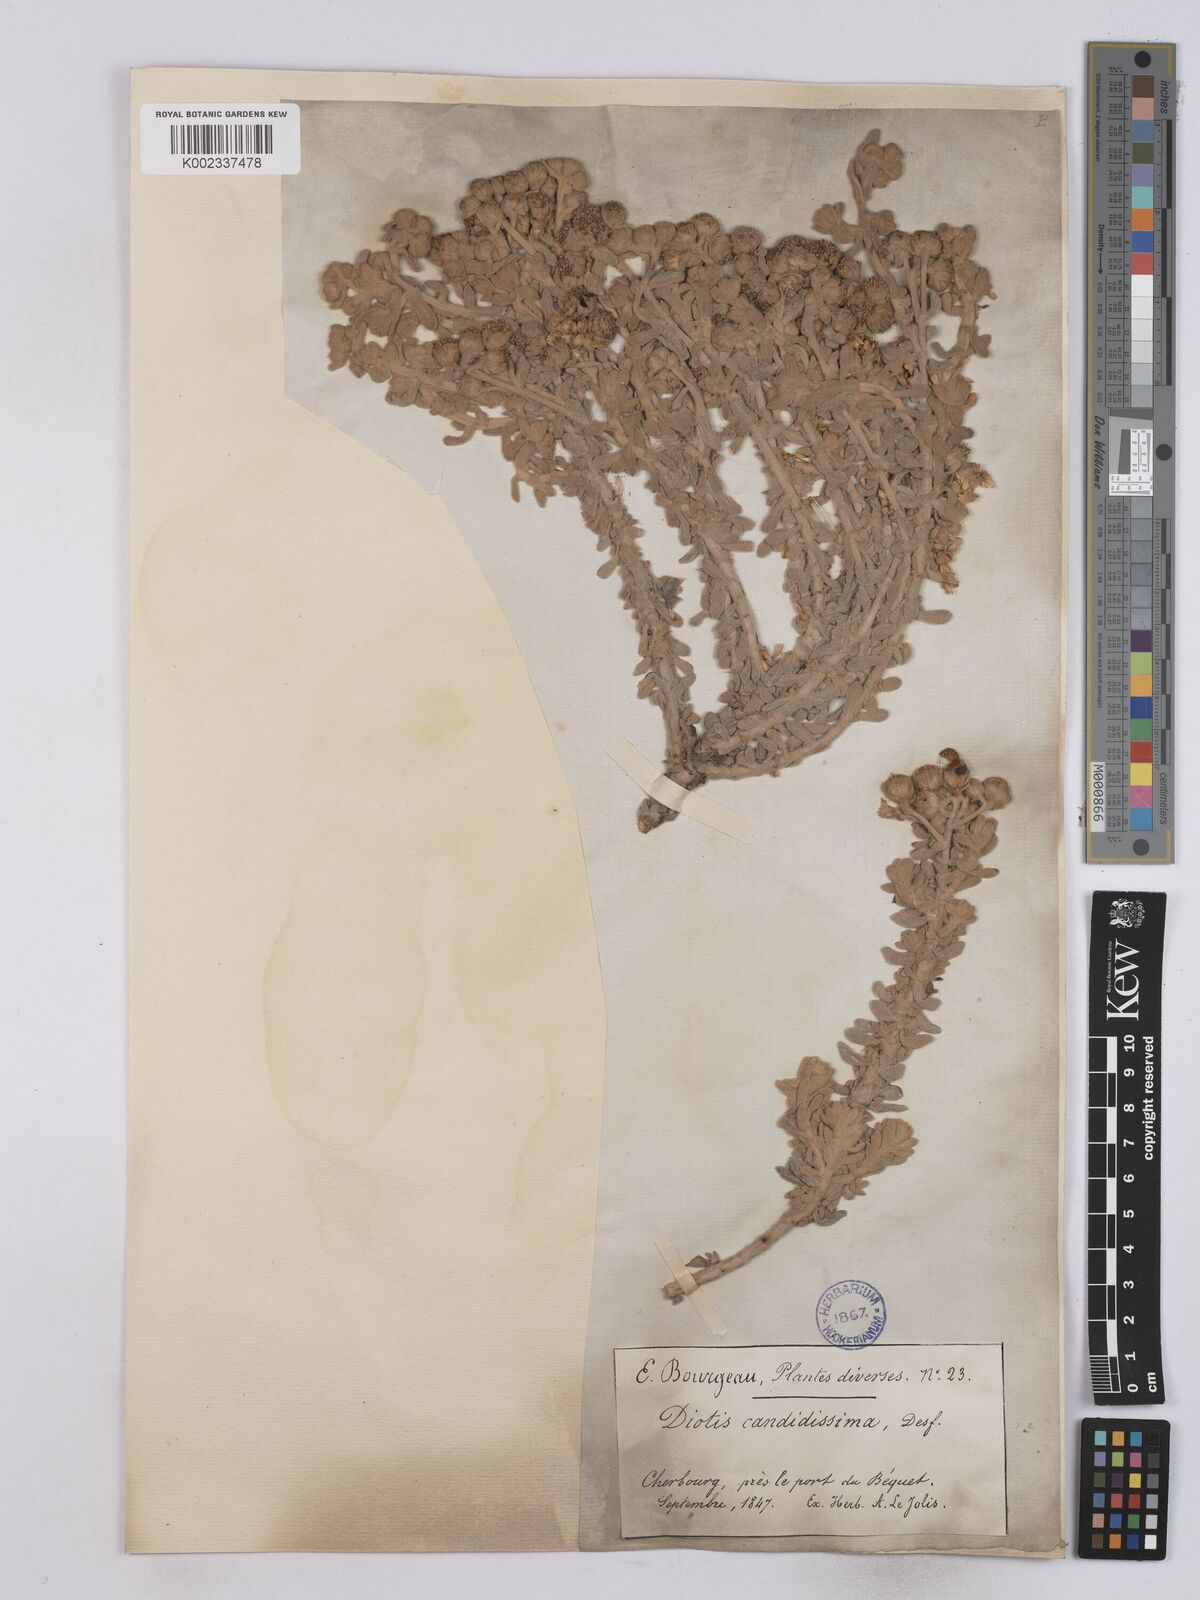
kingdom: Plantae
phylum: Tracheophyta
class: Magnoliopsida
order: Asterales
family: Asteraceae
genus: Achillea
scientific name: Achillea maritima
